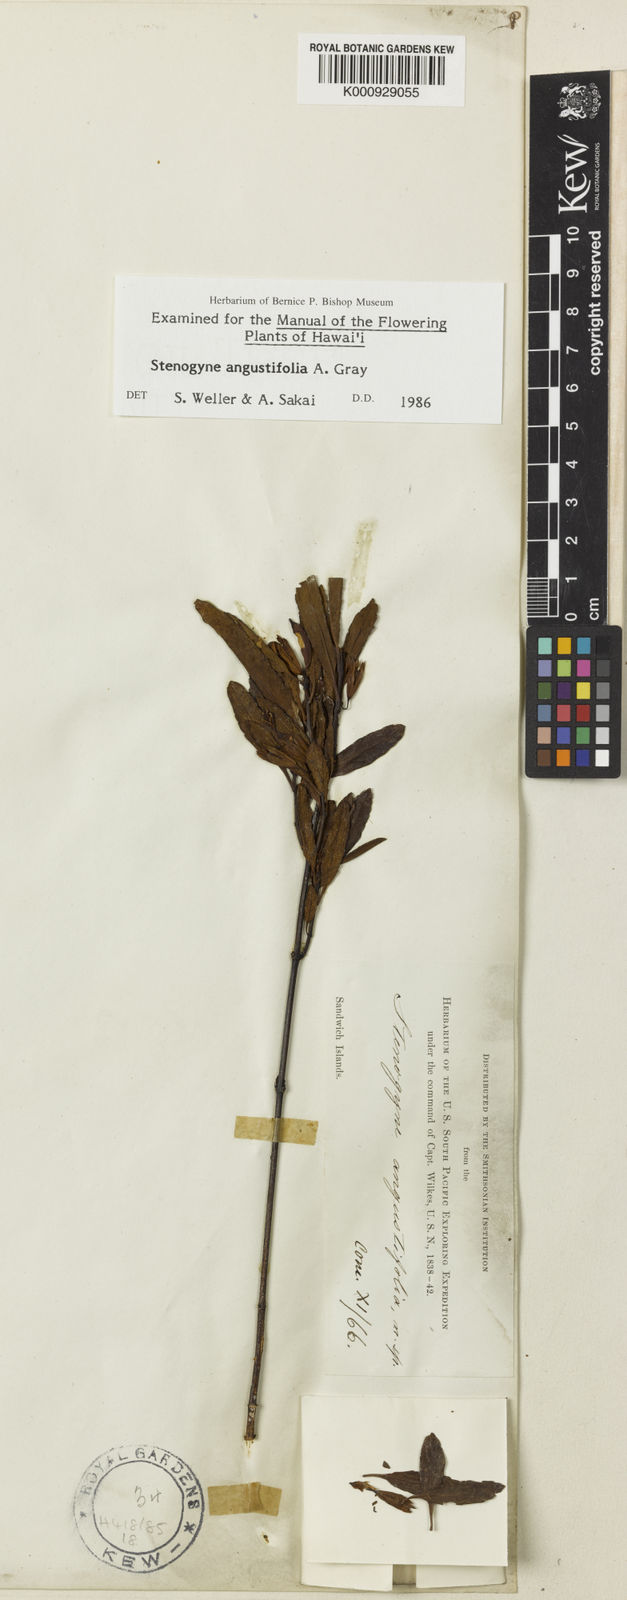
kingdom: Plantae
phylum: Tracheophyta
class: Magnoliopsida
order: Lamiales
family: Lamiaceae
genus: Stenogyne
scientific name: Stenogyne angustifolia
